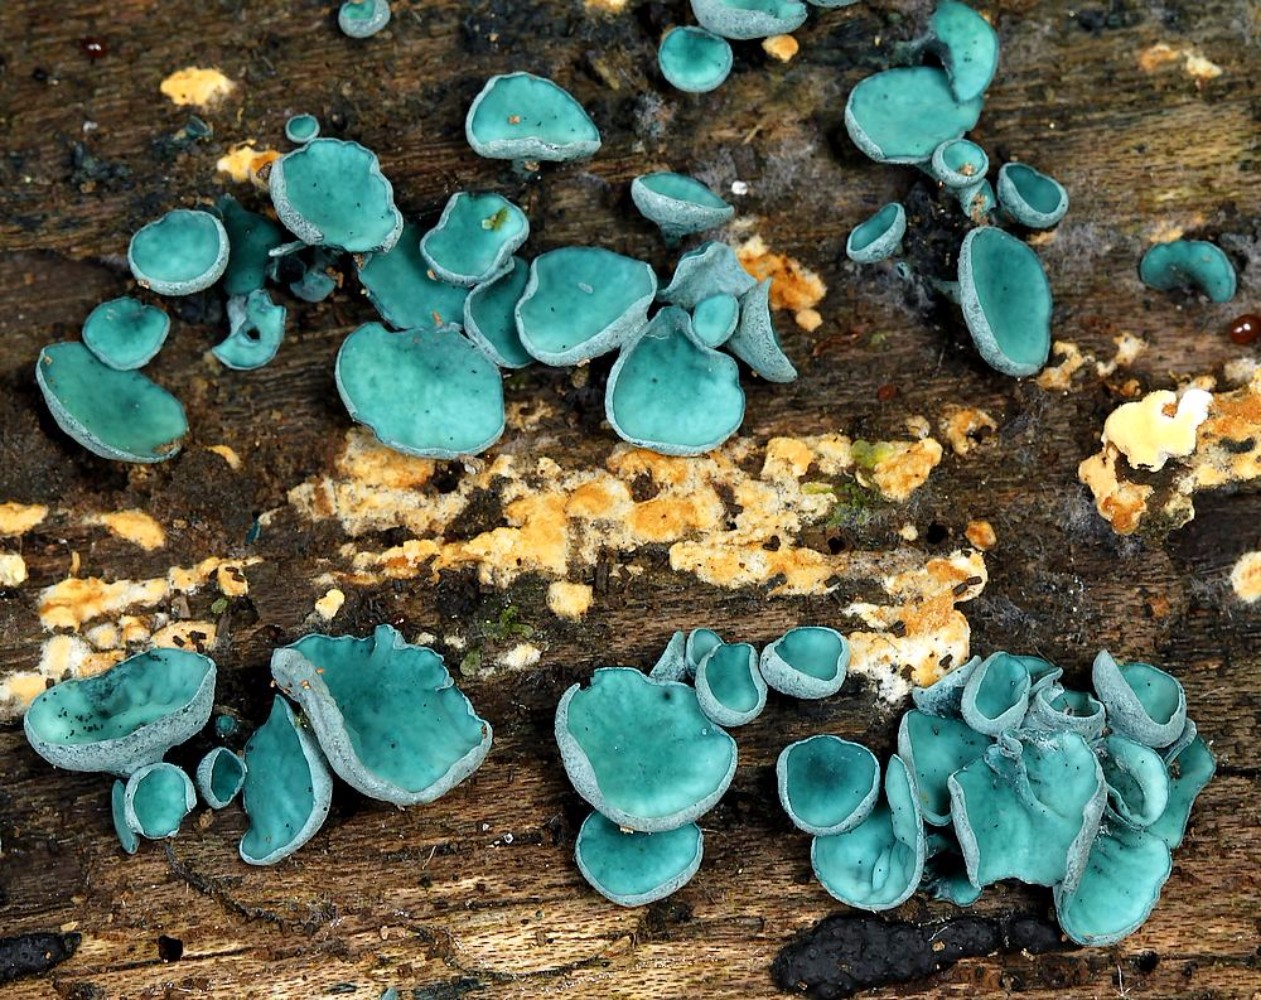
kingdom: Fungi
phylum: Ascomycota
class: Leotiomycetes
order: Helotiales
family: Chlorociboriaceae
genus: Chlorociboria
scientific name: Chlorociboria aeruginascens
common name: almindelig grønskive
